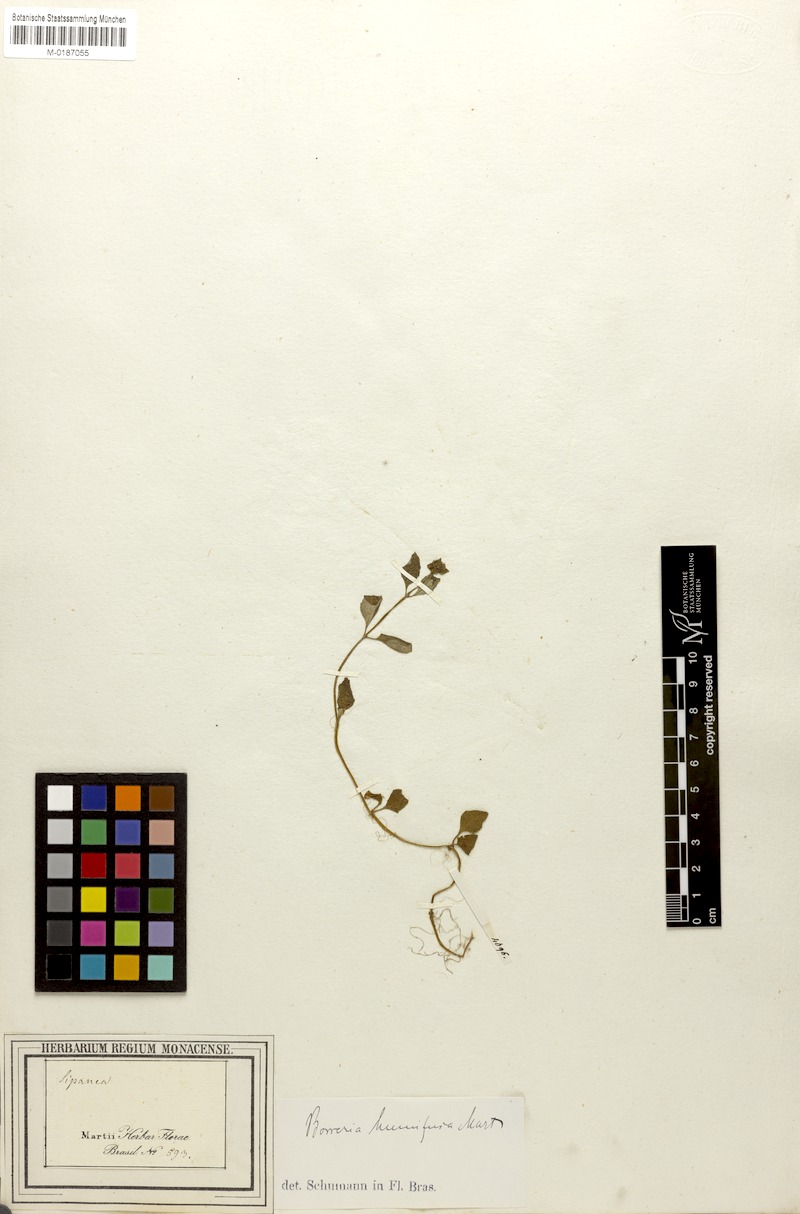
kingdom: Plantae
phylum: Tracheophyta
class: Magnoliopsida
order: Gentianales
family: Rubiaceae
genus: Spermacoce
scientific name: Spermacoce scabiosoides
